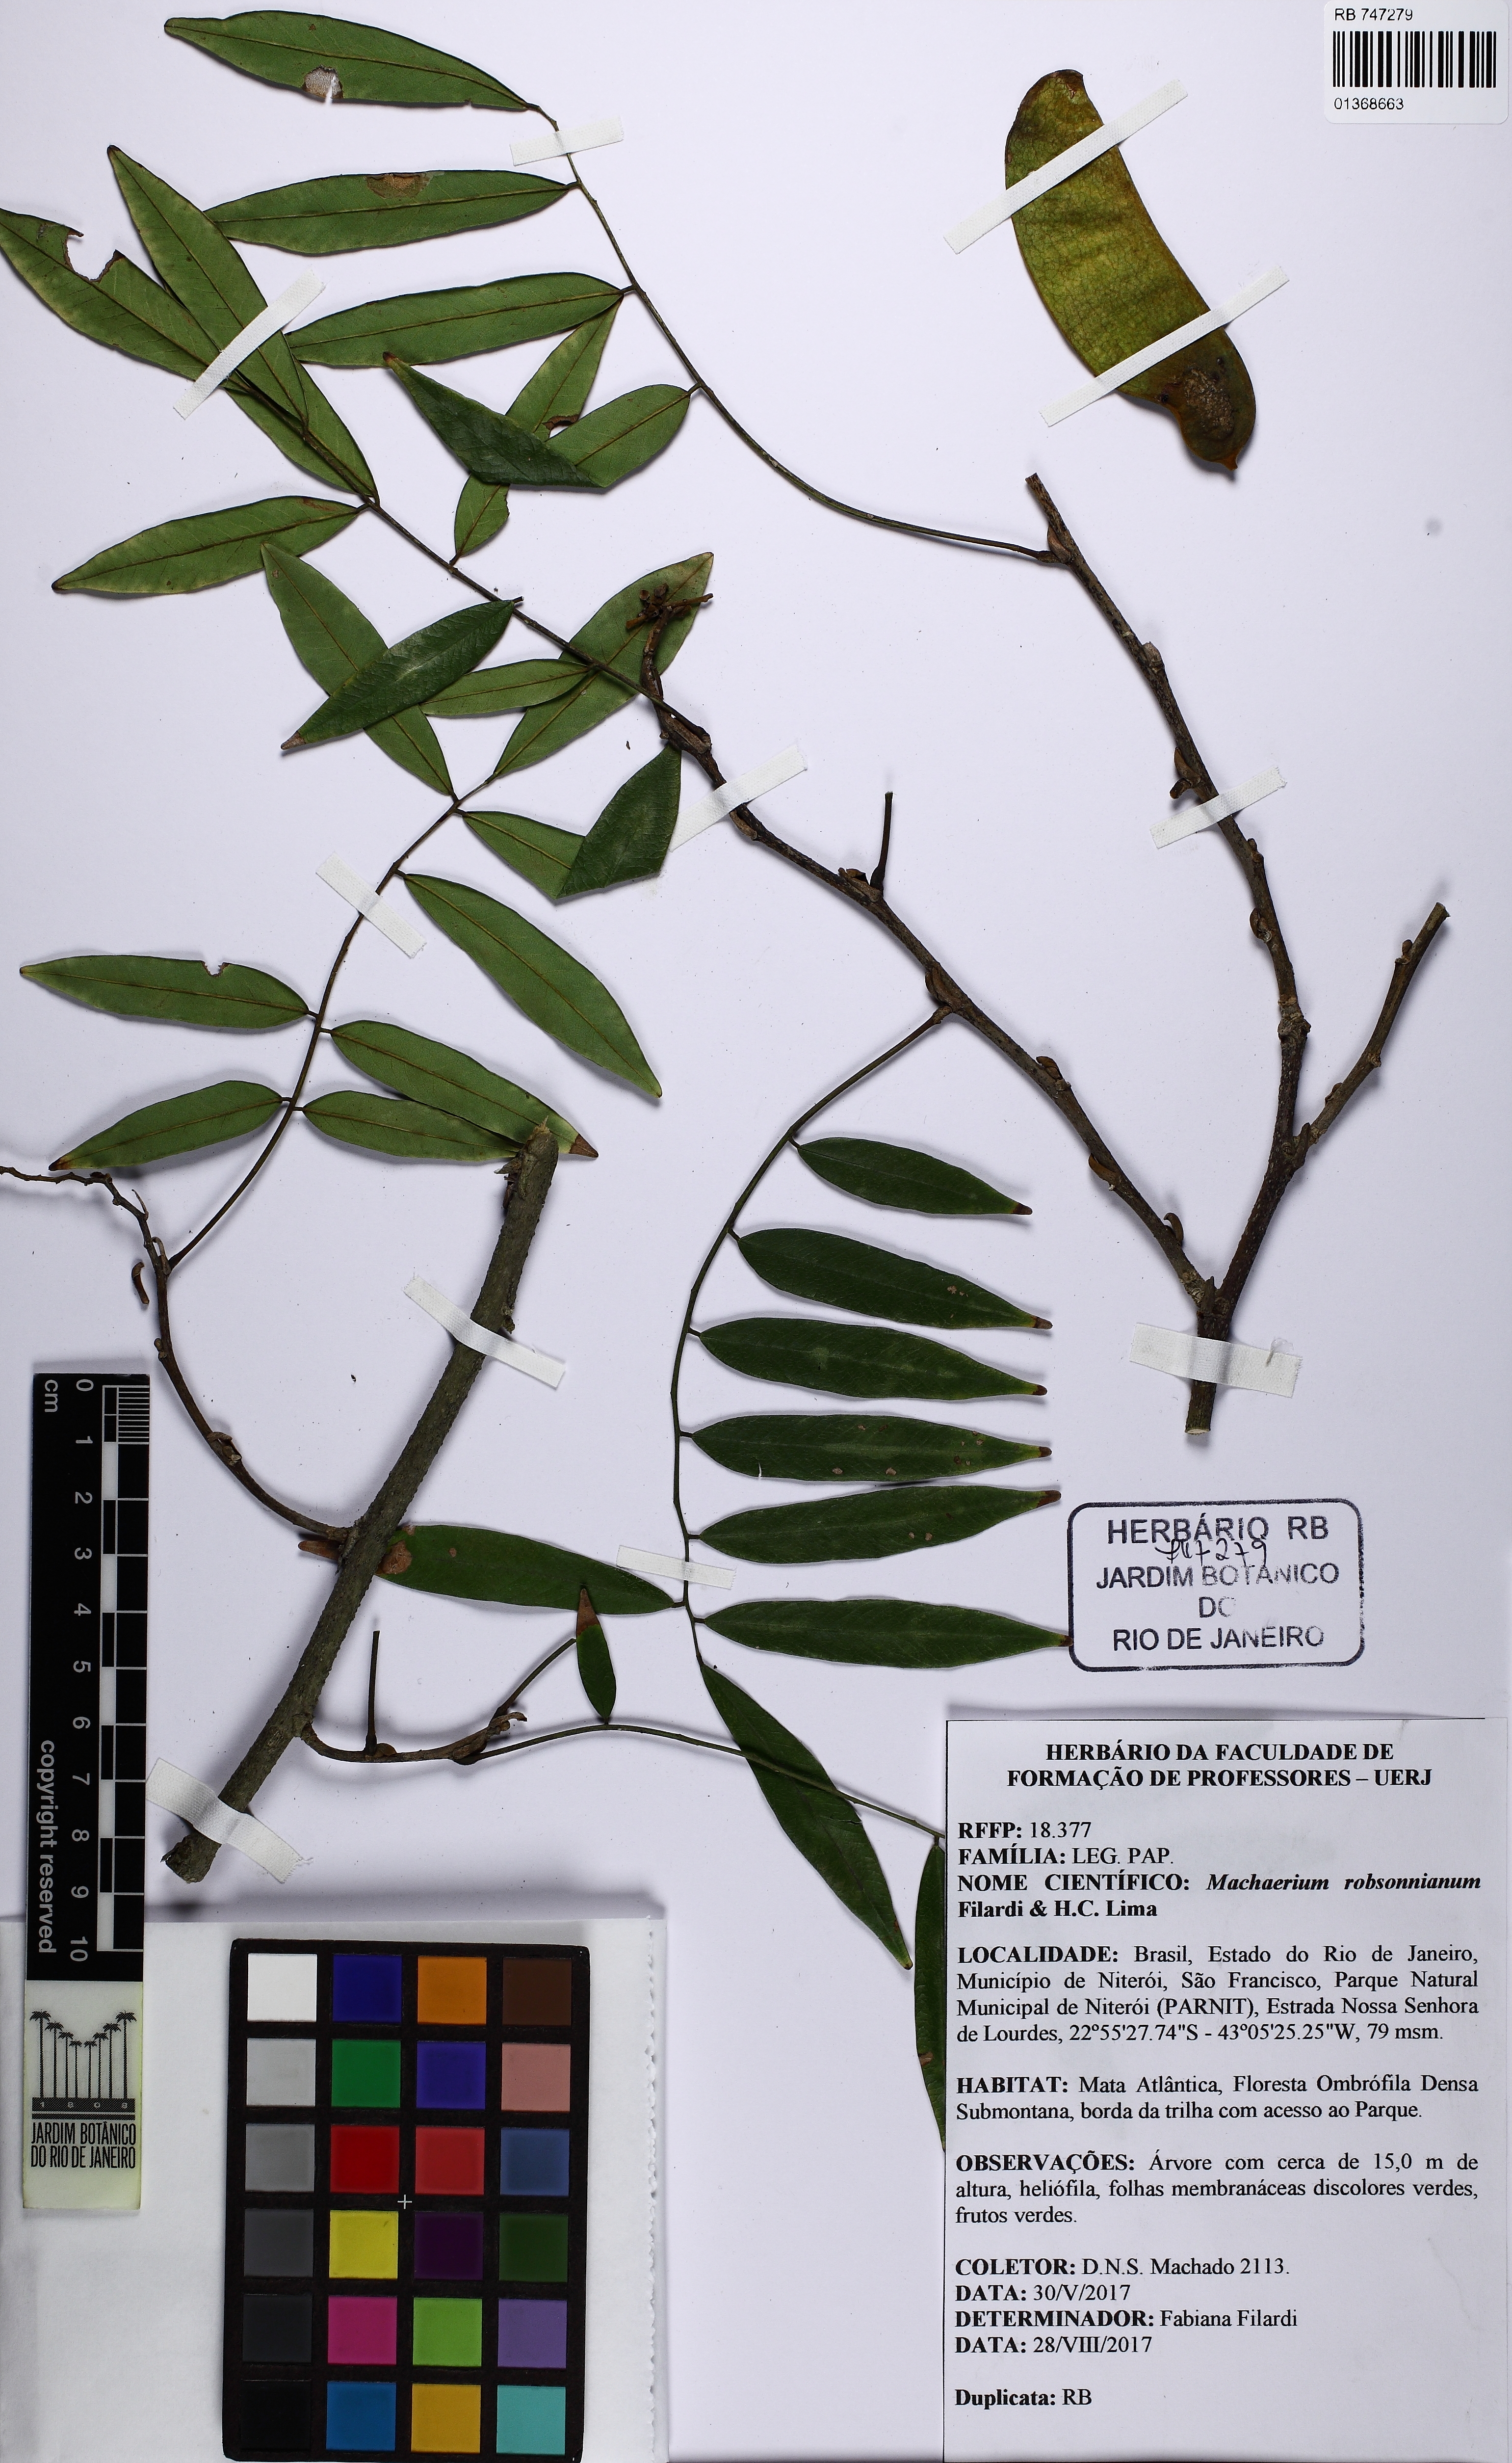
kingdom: Plantae
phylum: Tracheophyta
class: Magnoliopsida
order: Fabales
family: Fabaceae
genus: Machaerium
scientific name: Machaerium robsonianum
